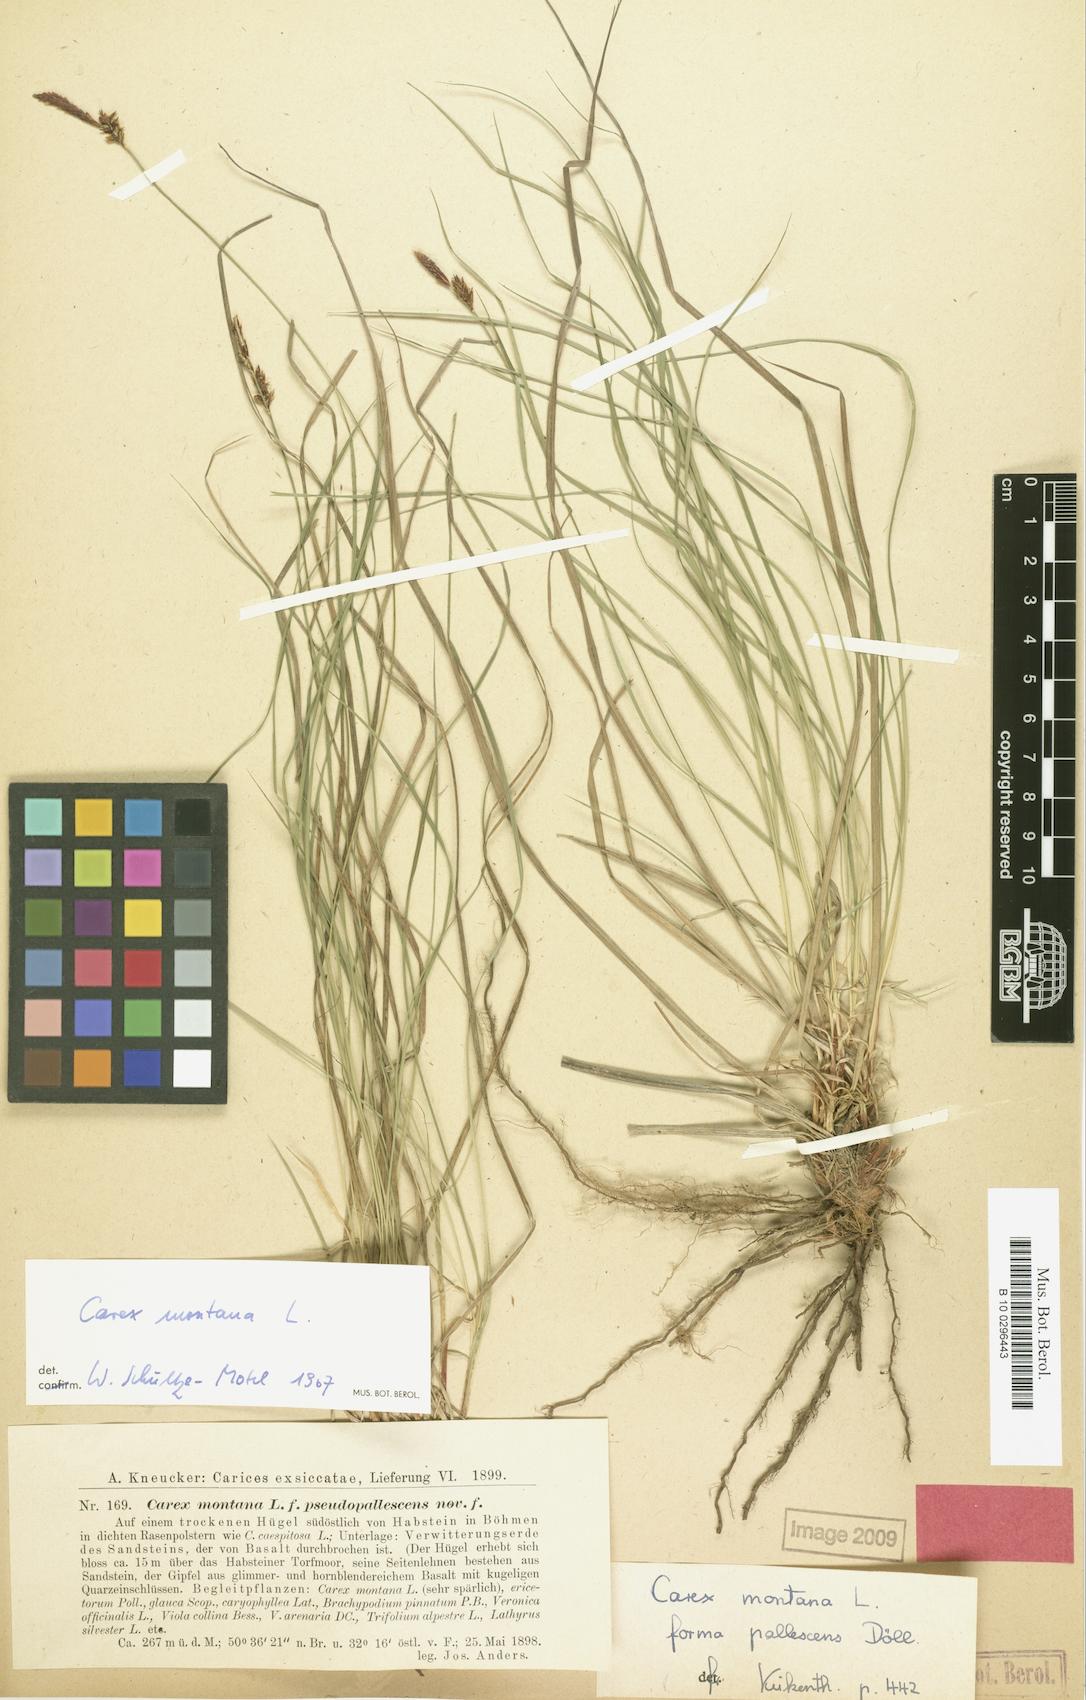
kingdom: Plantae
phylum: Tracheophyta
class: Liliopsida
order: Poales
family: Cyperaceae
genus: Carex
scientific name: Carex montana
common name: Soft-leaved sedge
